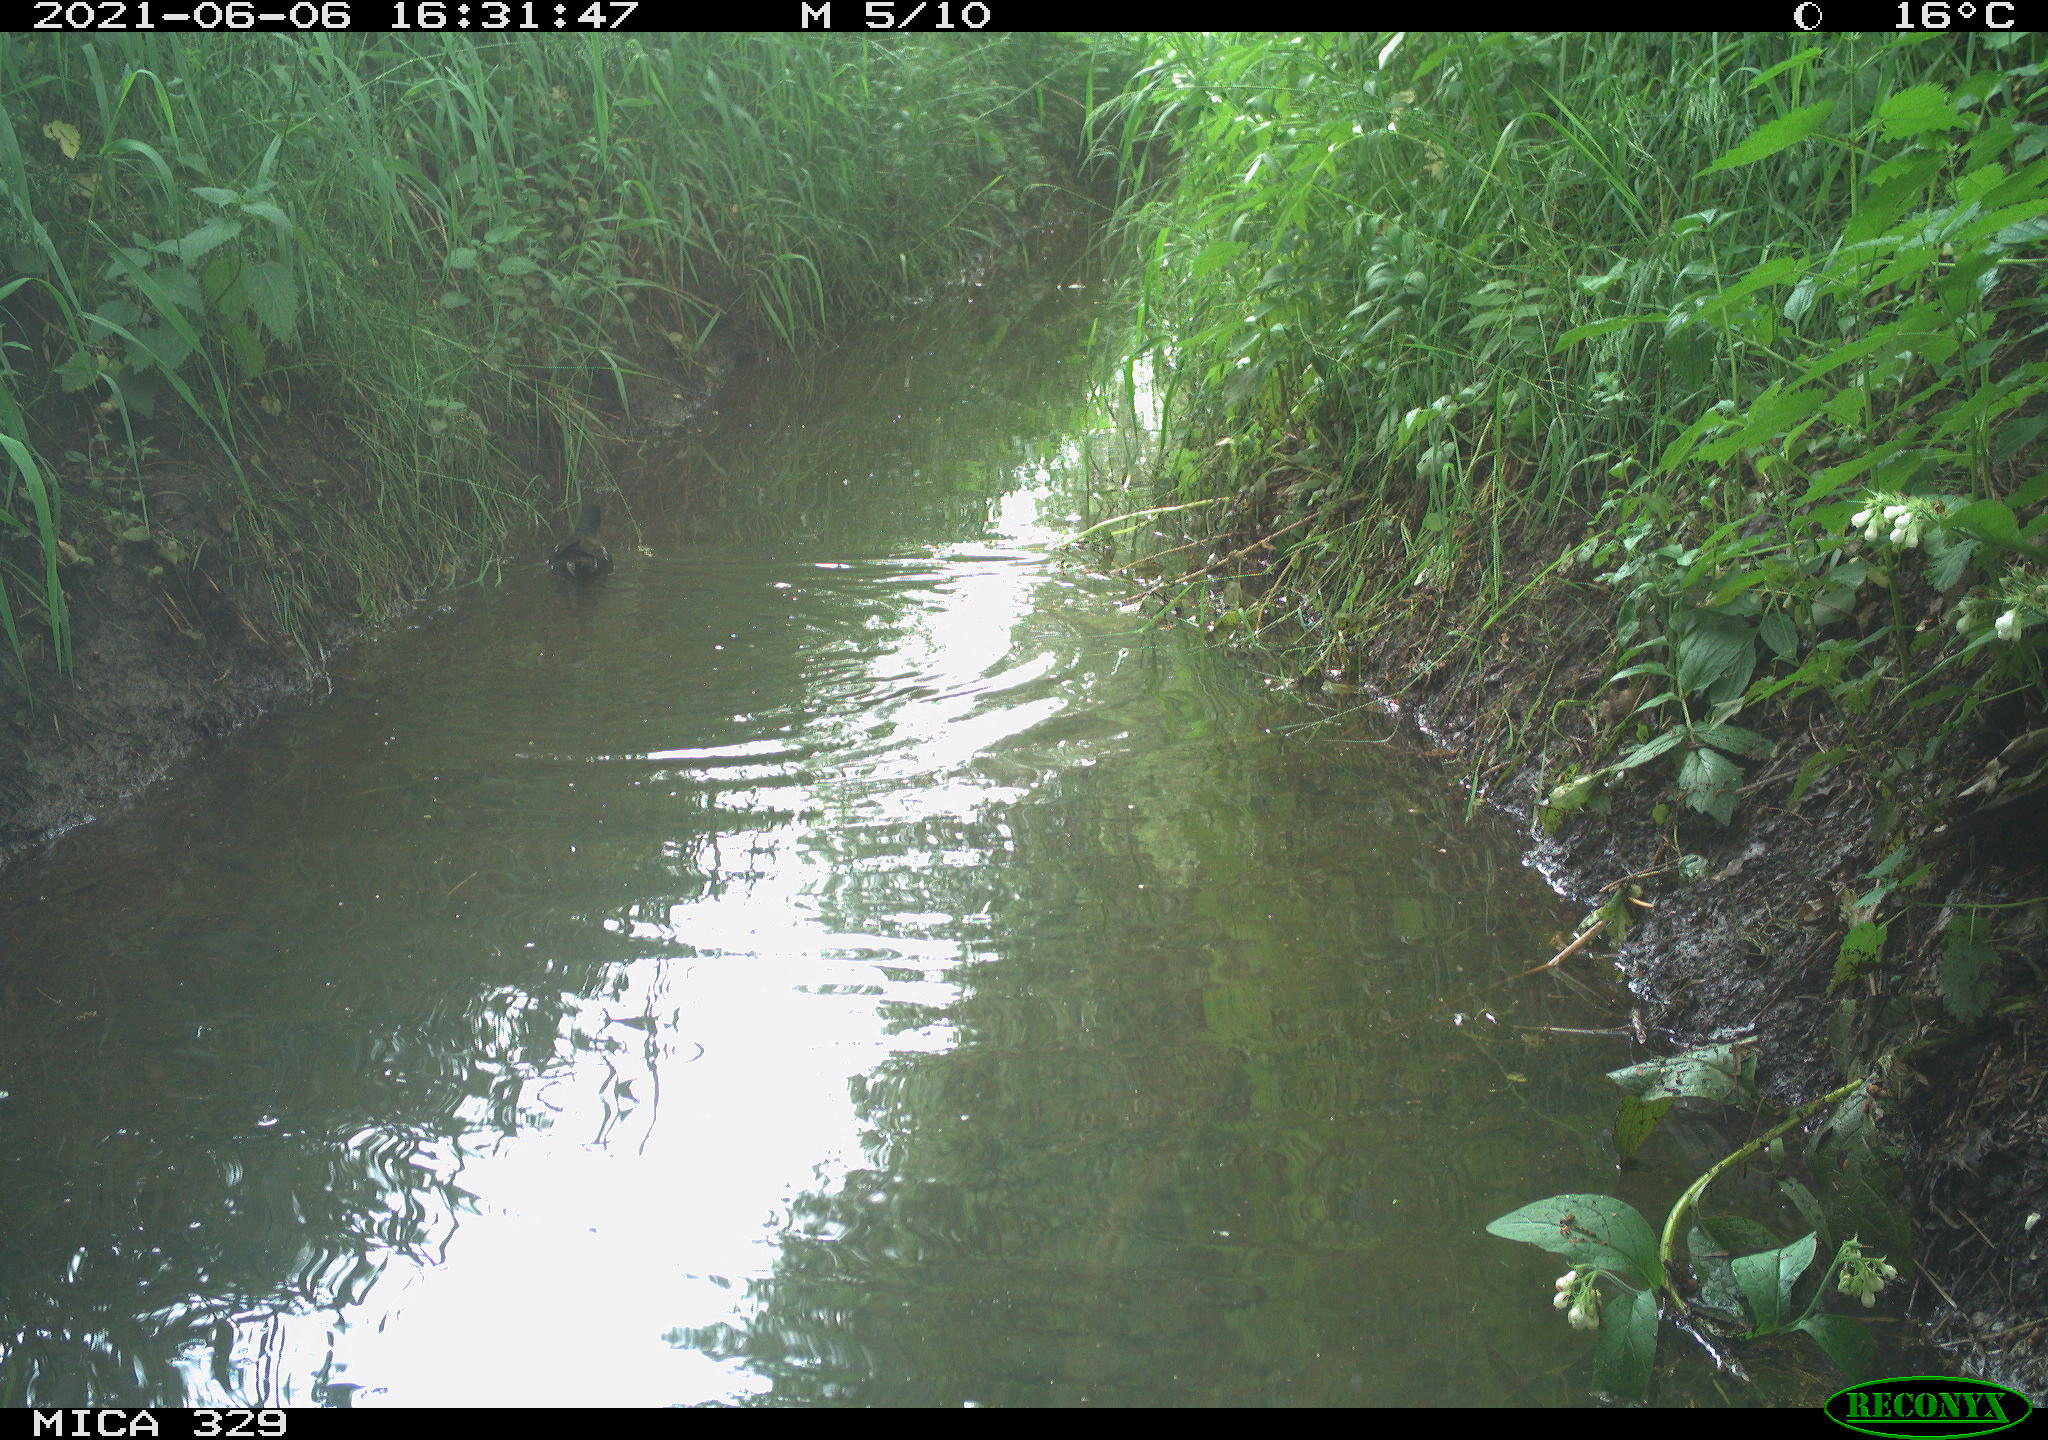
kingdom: Animalia
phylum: Chordata
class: Aves
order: Gruiformes
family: Rallidae
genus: Gallinula
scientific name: Gallinula chloropus
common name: Common moorhen
